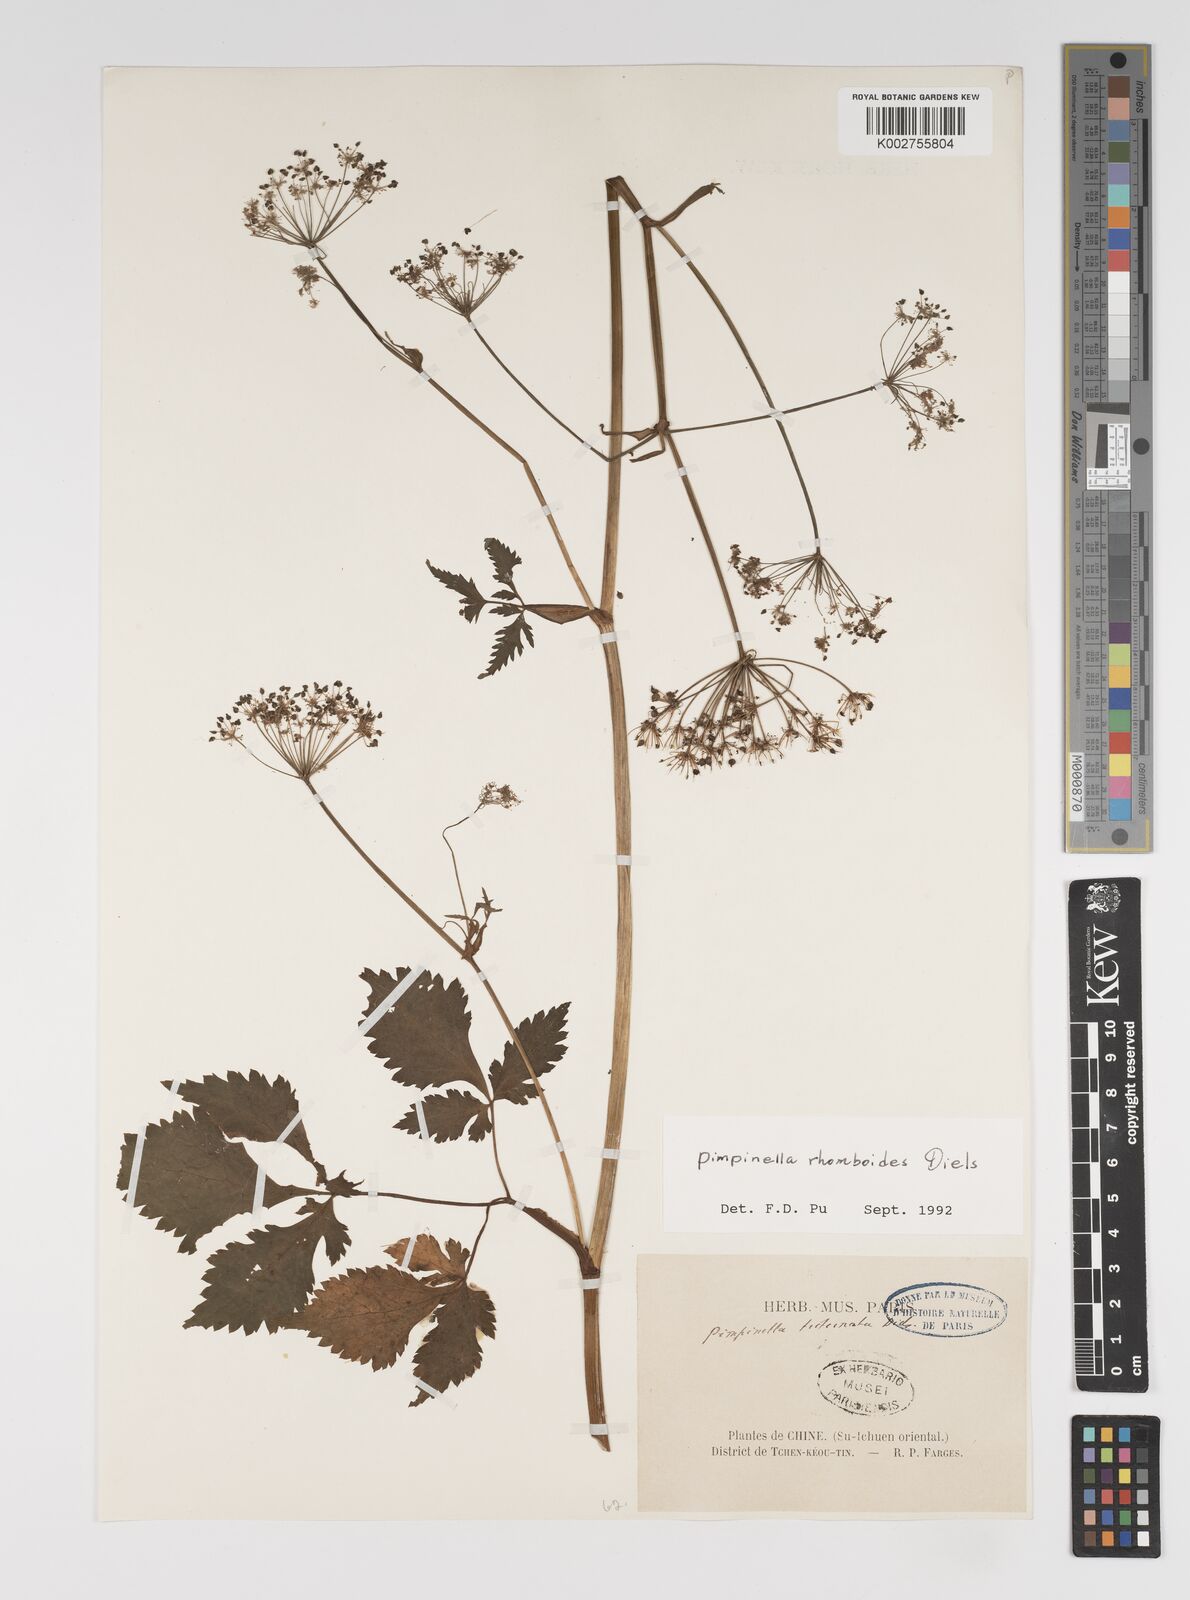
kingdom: Plantae
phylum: Tracheophyta
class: Magnoliopsida
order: Apiales
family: Apiaceae
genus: Pimpinella
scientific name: Pimpinella triternata
